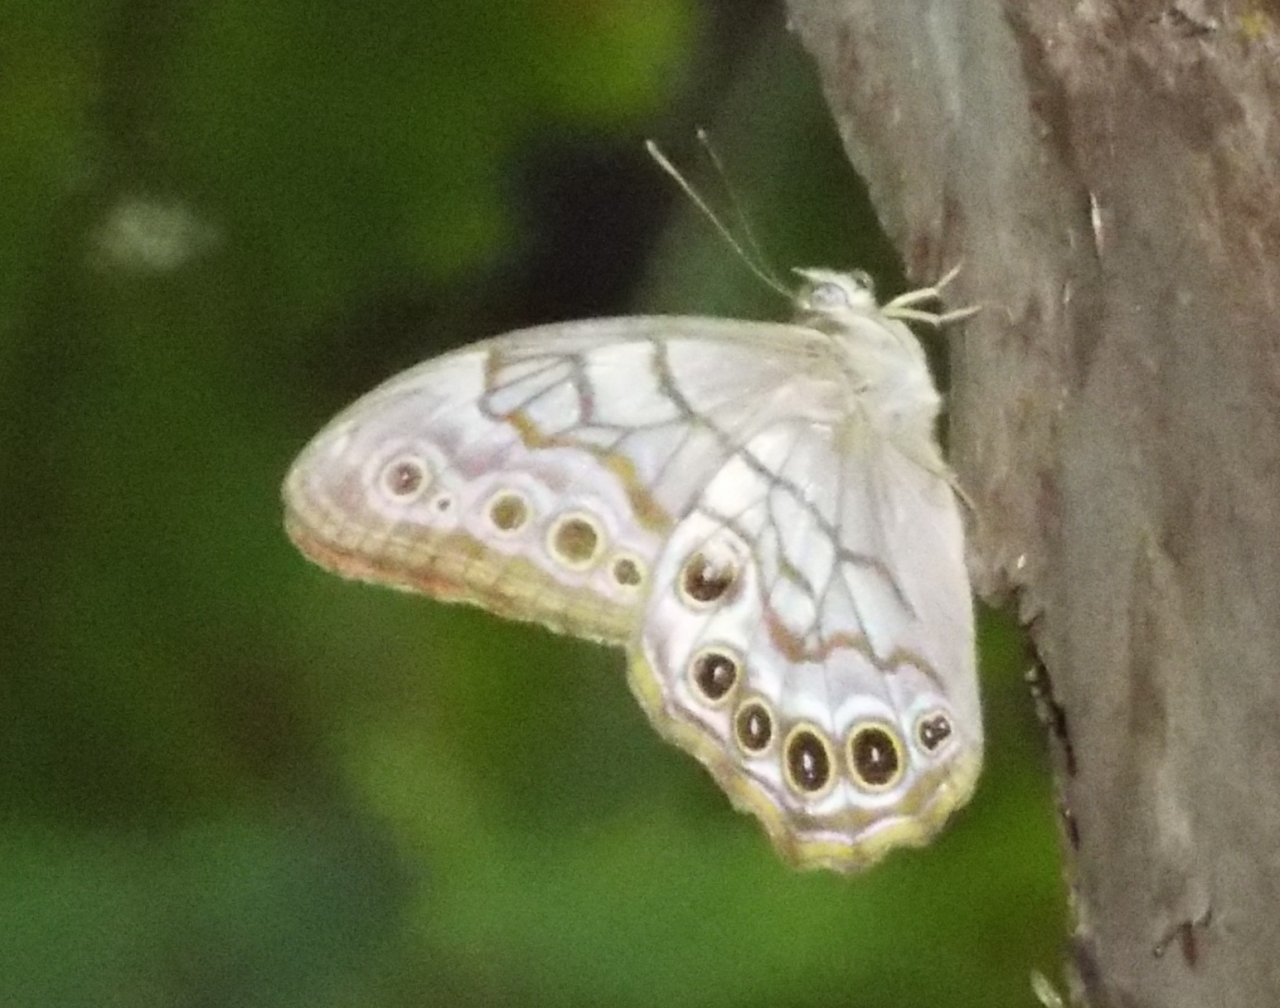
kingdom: Animalia
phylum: Arthropoda
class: Insecta
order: Lepidoptera
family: Nymphalidae
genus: Lethe
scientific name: Lethe creola
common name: Creole Pearly-Eye
